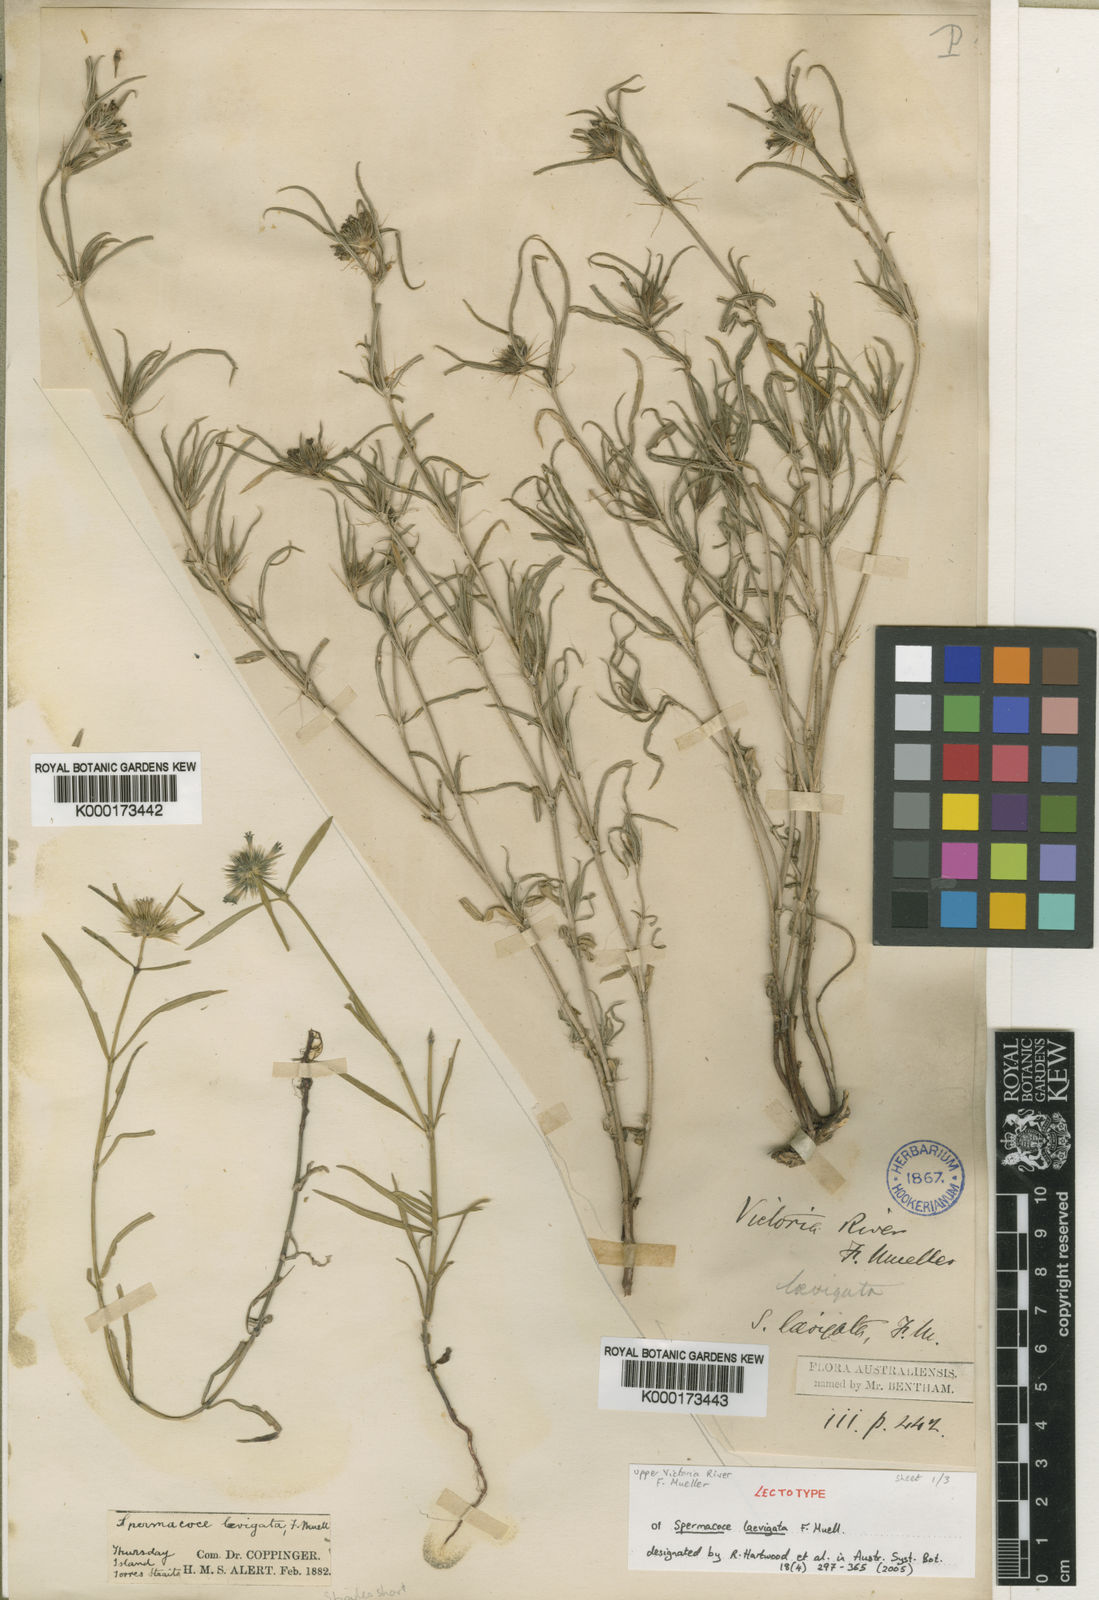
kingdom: Plantae
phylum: Tracheophyta
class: Magnoliopsida
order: Gentianales
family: Rubiaceae
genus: Spermacoce
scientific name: Spermacoce laevigata
